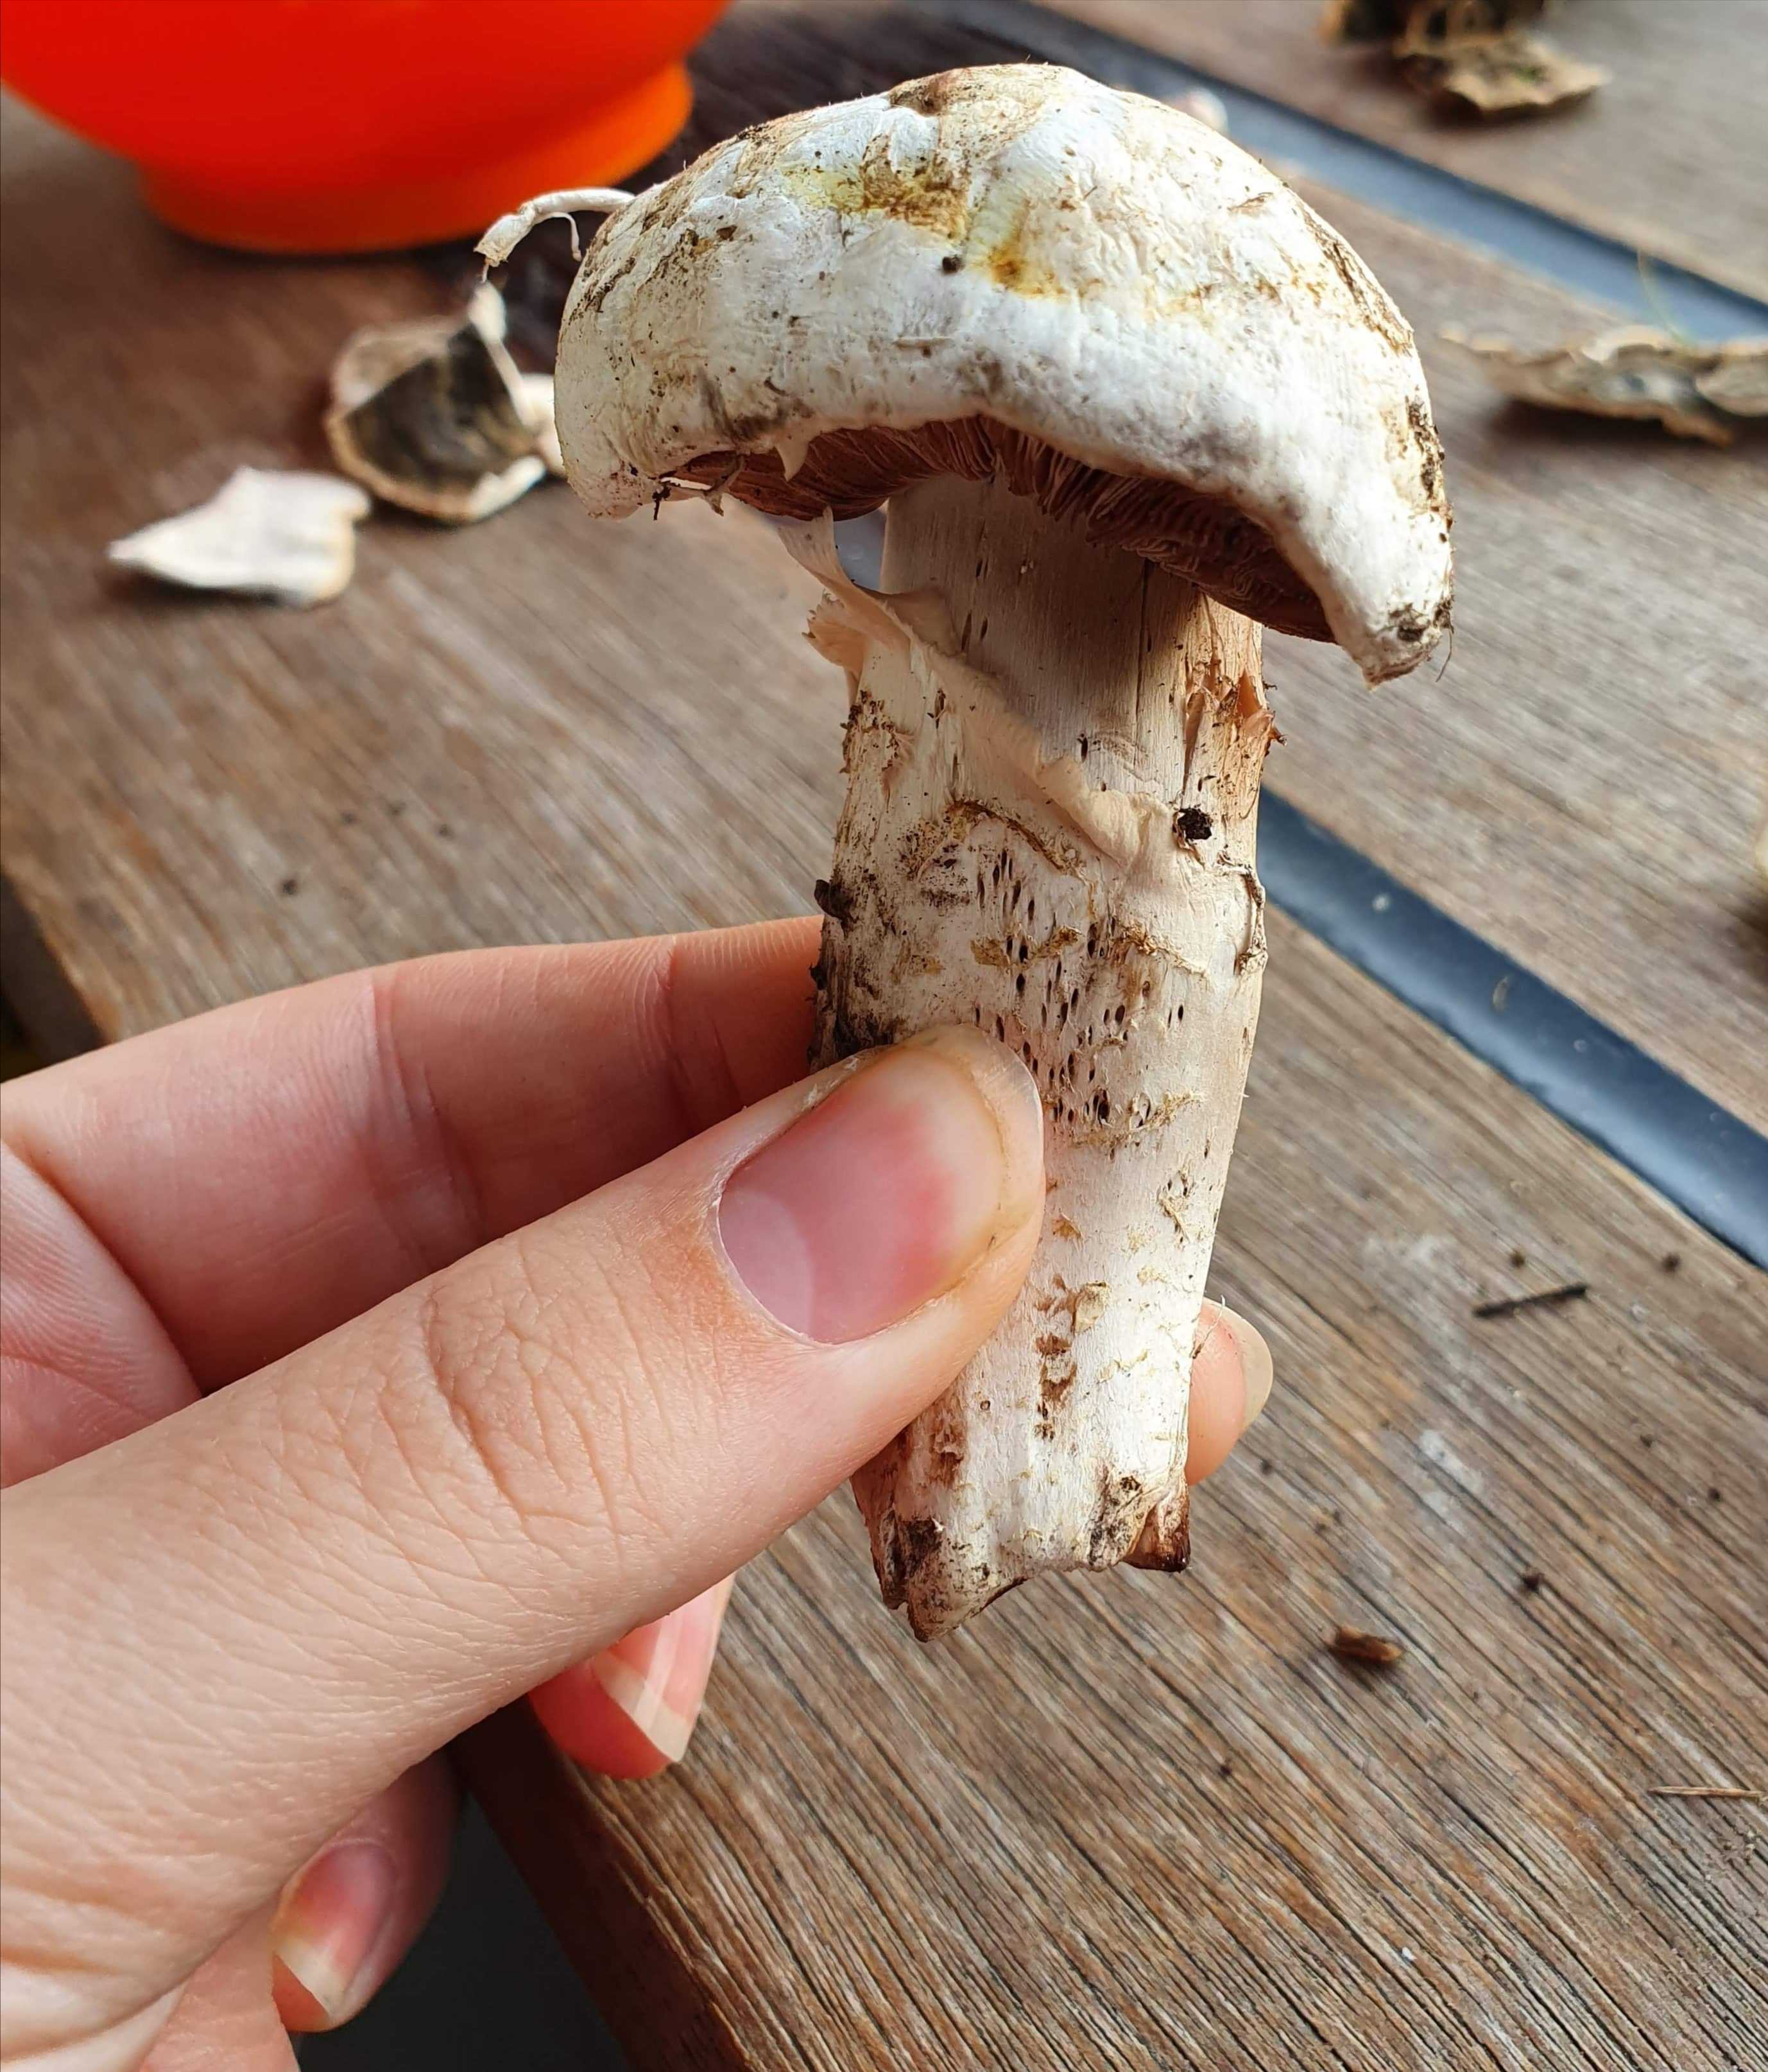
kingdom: Fungi
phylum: Basidiomycota
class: Agaricomycetes
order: Agaricales
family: Agaricaceae
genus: Agaricus
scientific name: Agaricus bitorquis
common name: vej-champignon
